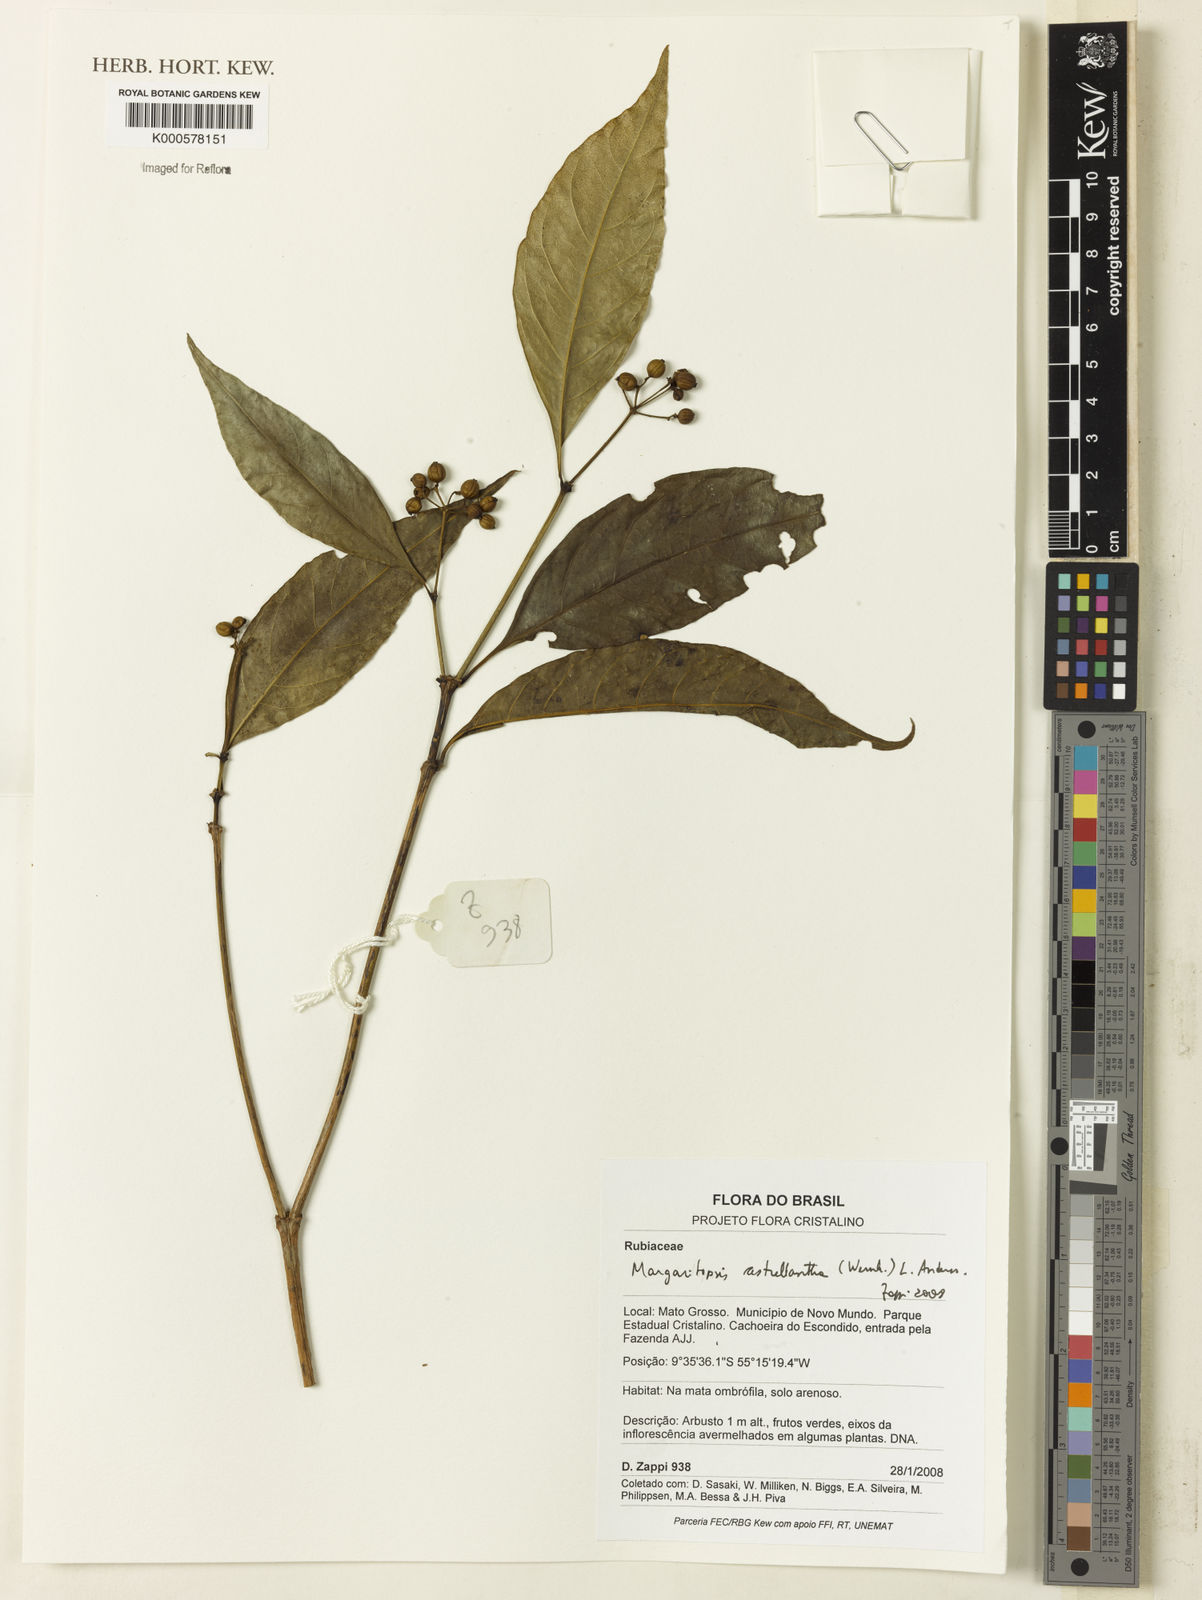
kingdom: Plantae
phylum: Tracheophyta
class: Magnoliopsida
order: Gentianales
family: Rubiaceae
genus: Eumachia
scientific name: Eumachia astrellantha
